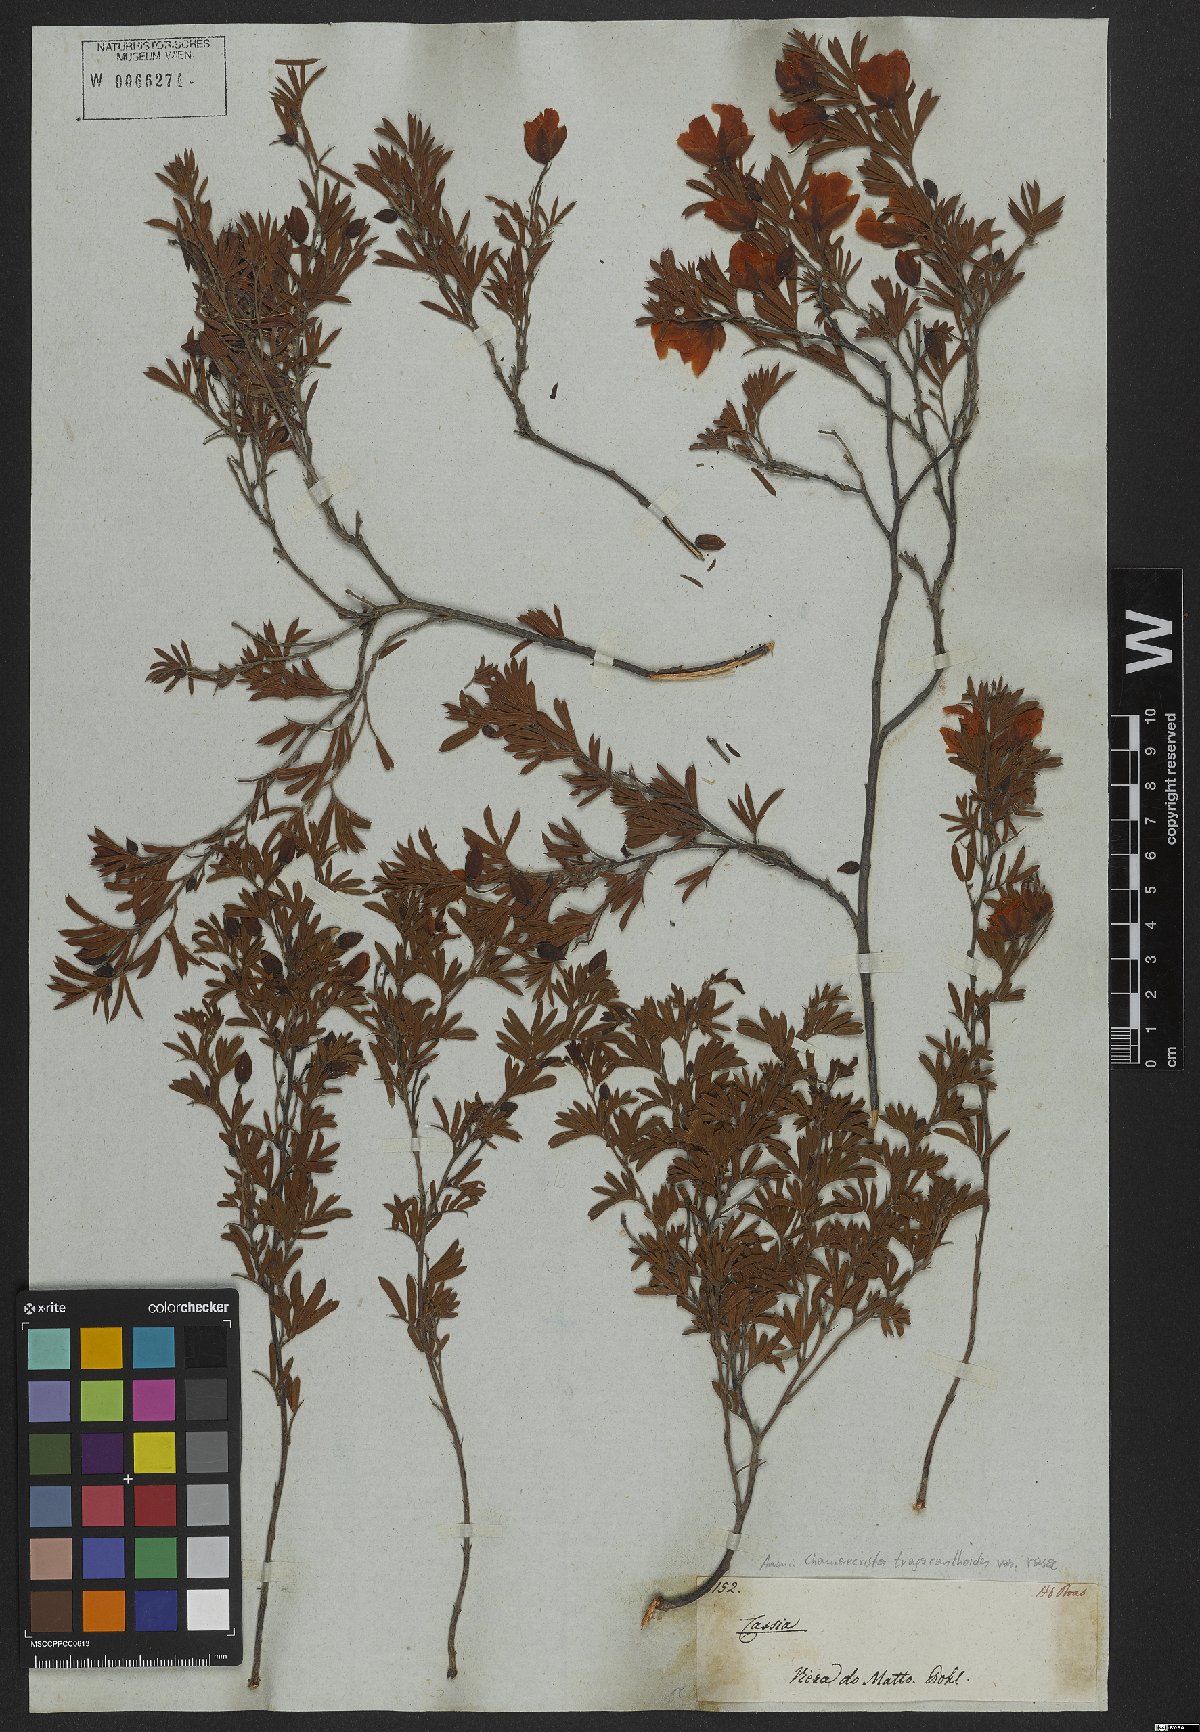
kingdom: Plantae
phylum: Tracheophyta
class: Magnoliopsida
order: Fabales
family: Fabaceae
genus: Chamaecrista
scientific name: Chamaecrista tragacanthoides
